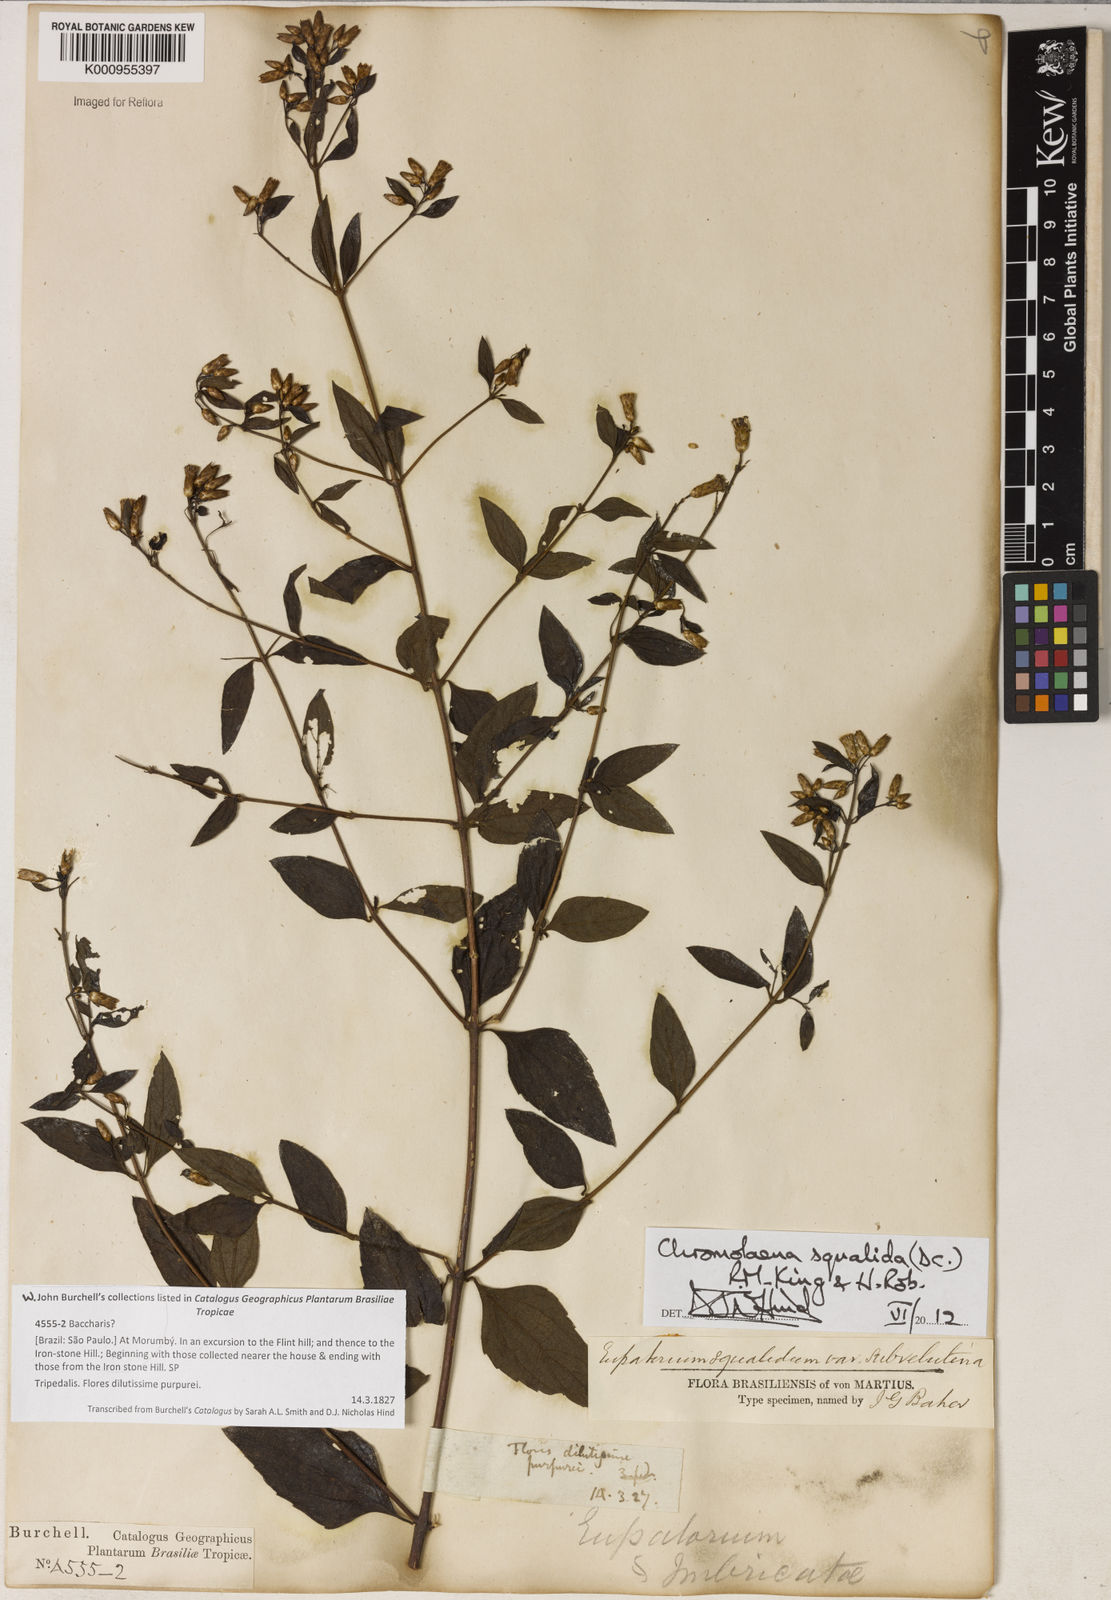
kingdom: Plantae
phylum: Tracheophyta
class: Magnoliopsida
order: Asterales
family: Asteraceae
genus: Chromolaena
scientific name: Chromolaena squalida
